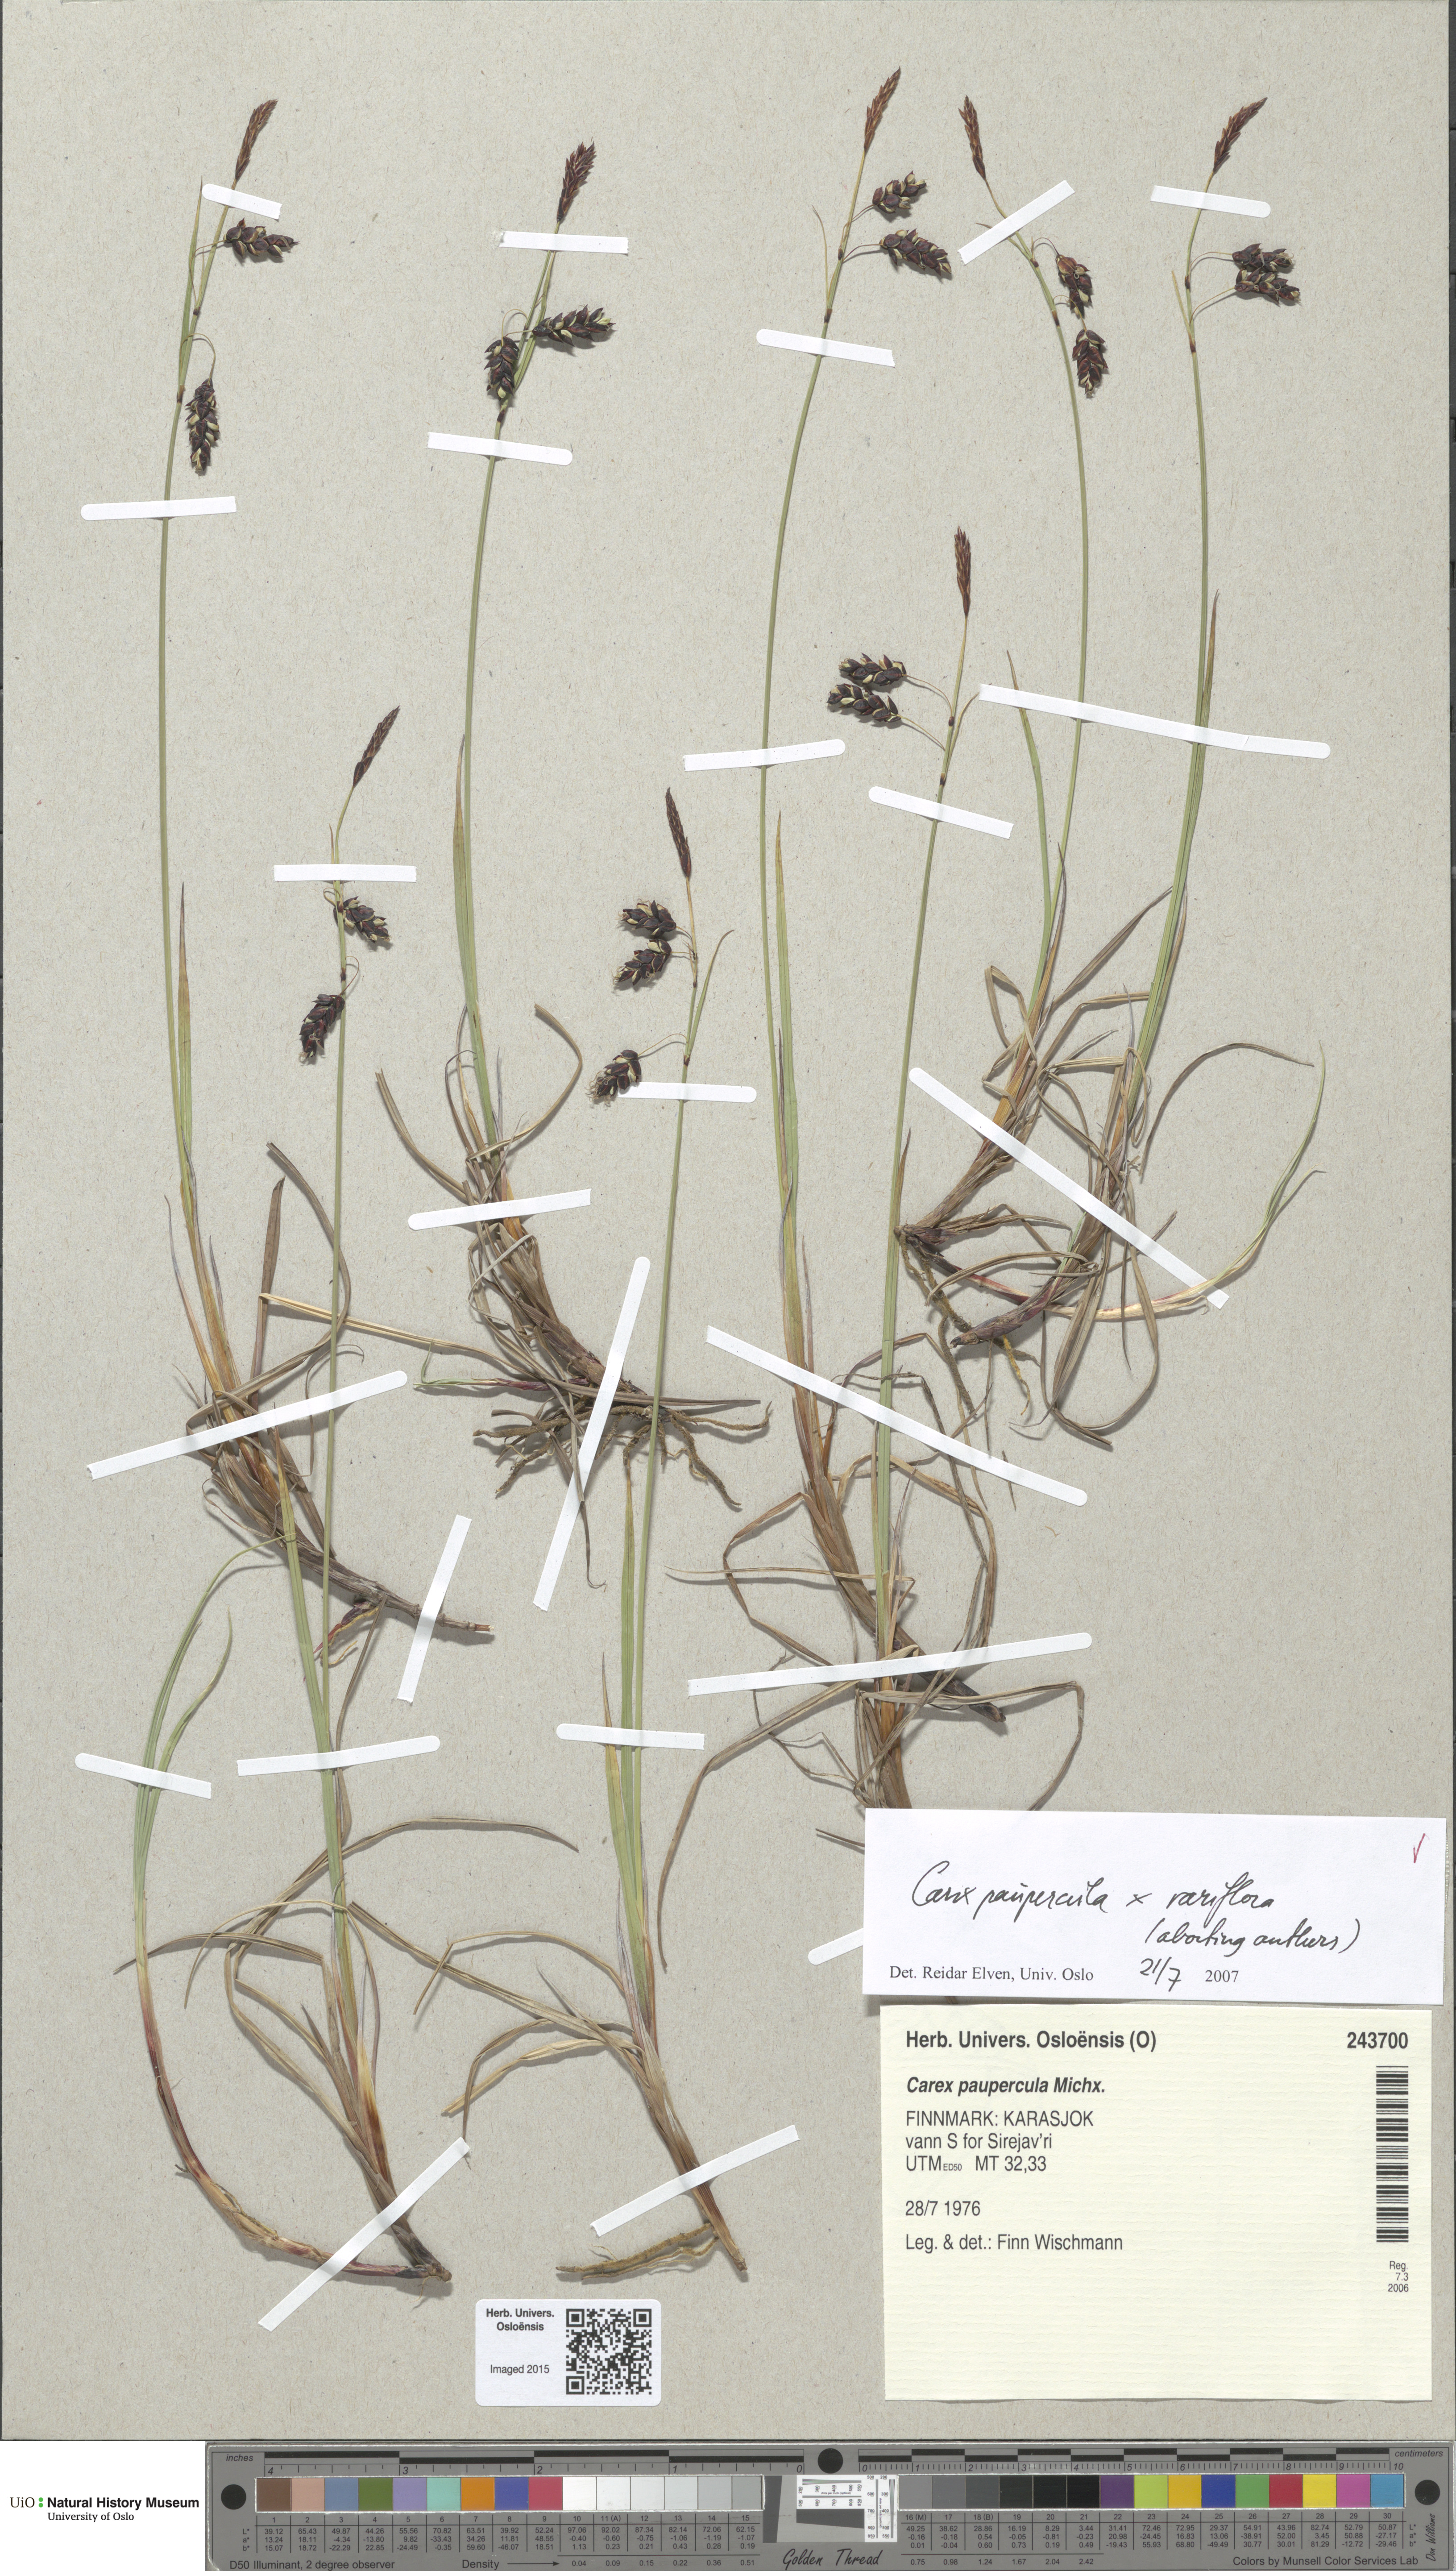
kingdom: Plantae
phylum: Tracheophyta
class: Liliopsida
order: Poales
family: Cyperaceae
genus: Carex
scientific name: Carex
